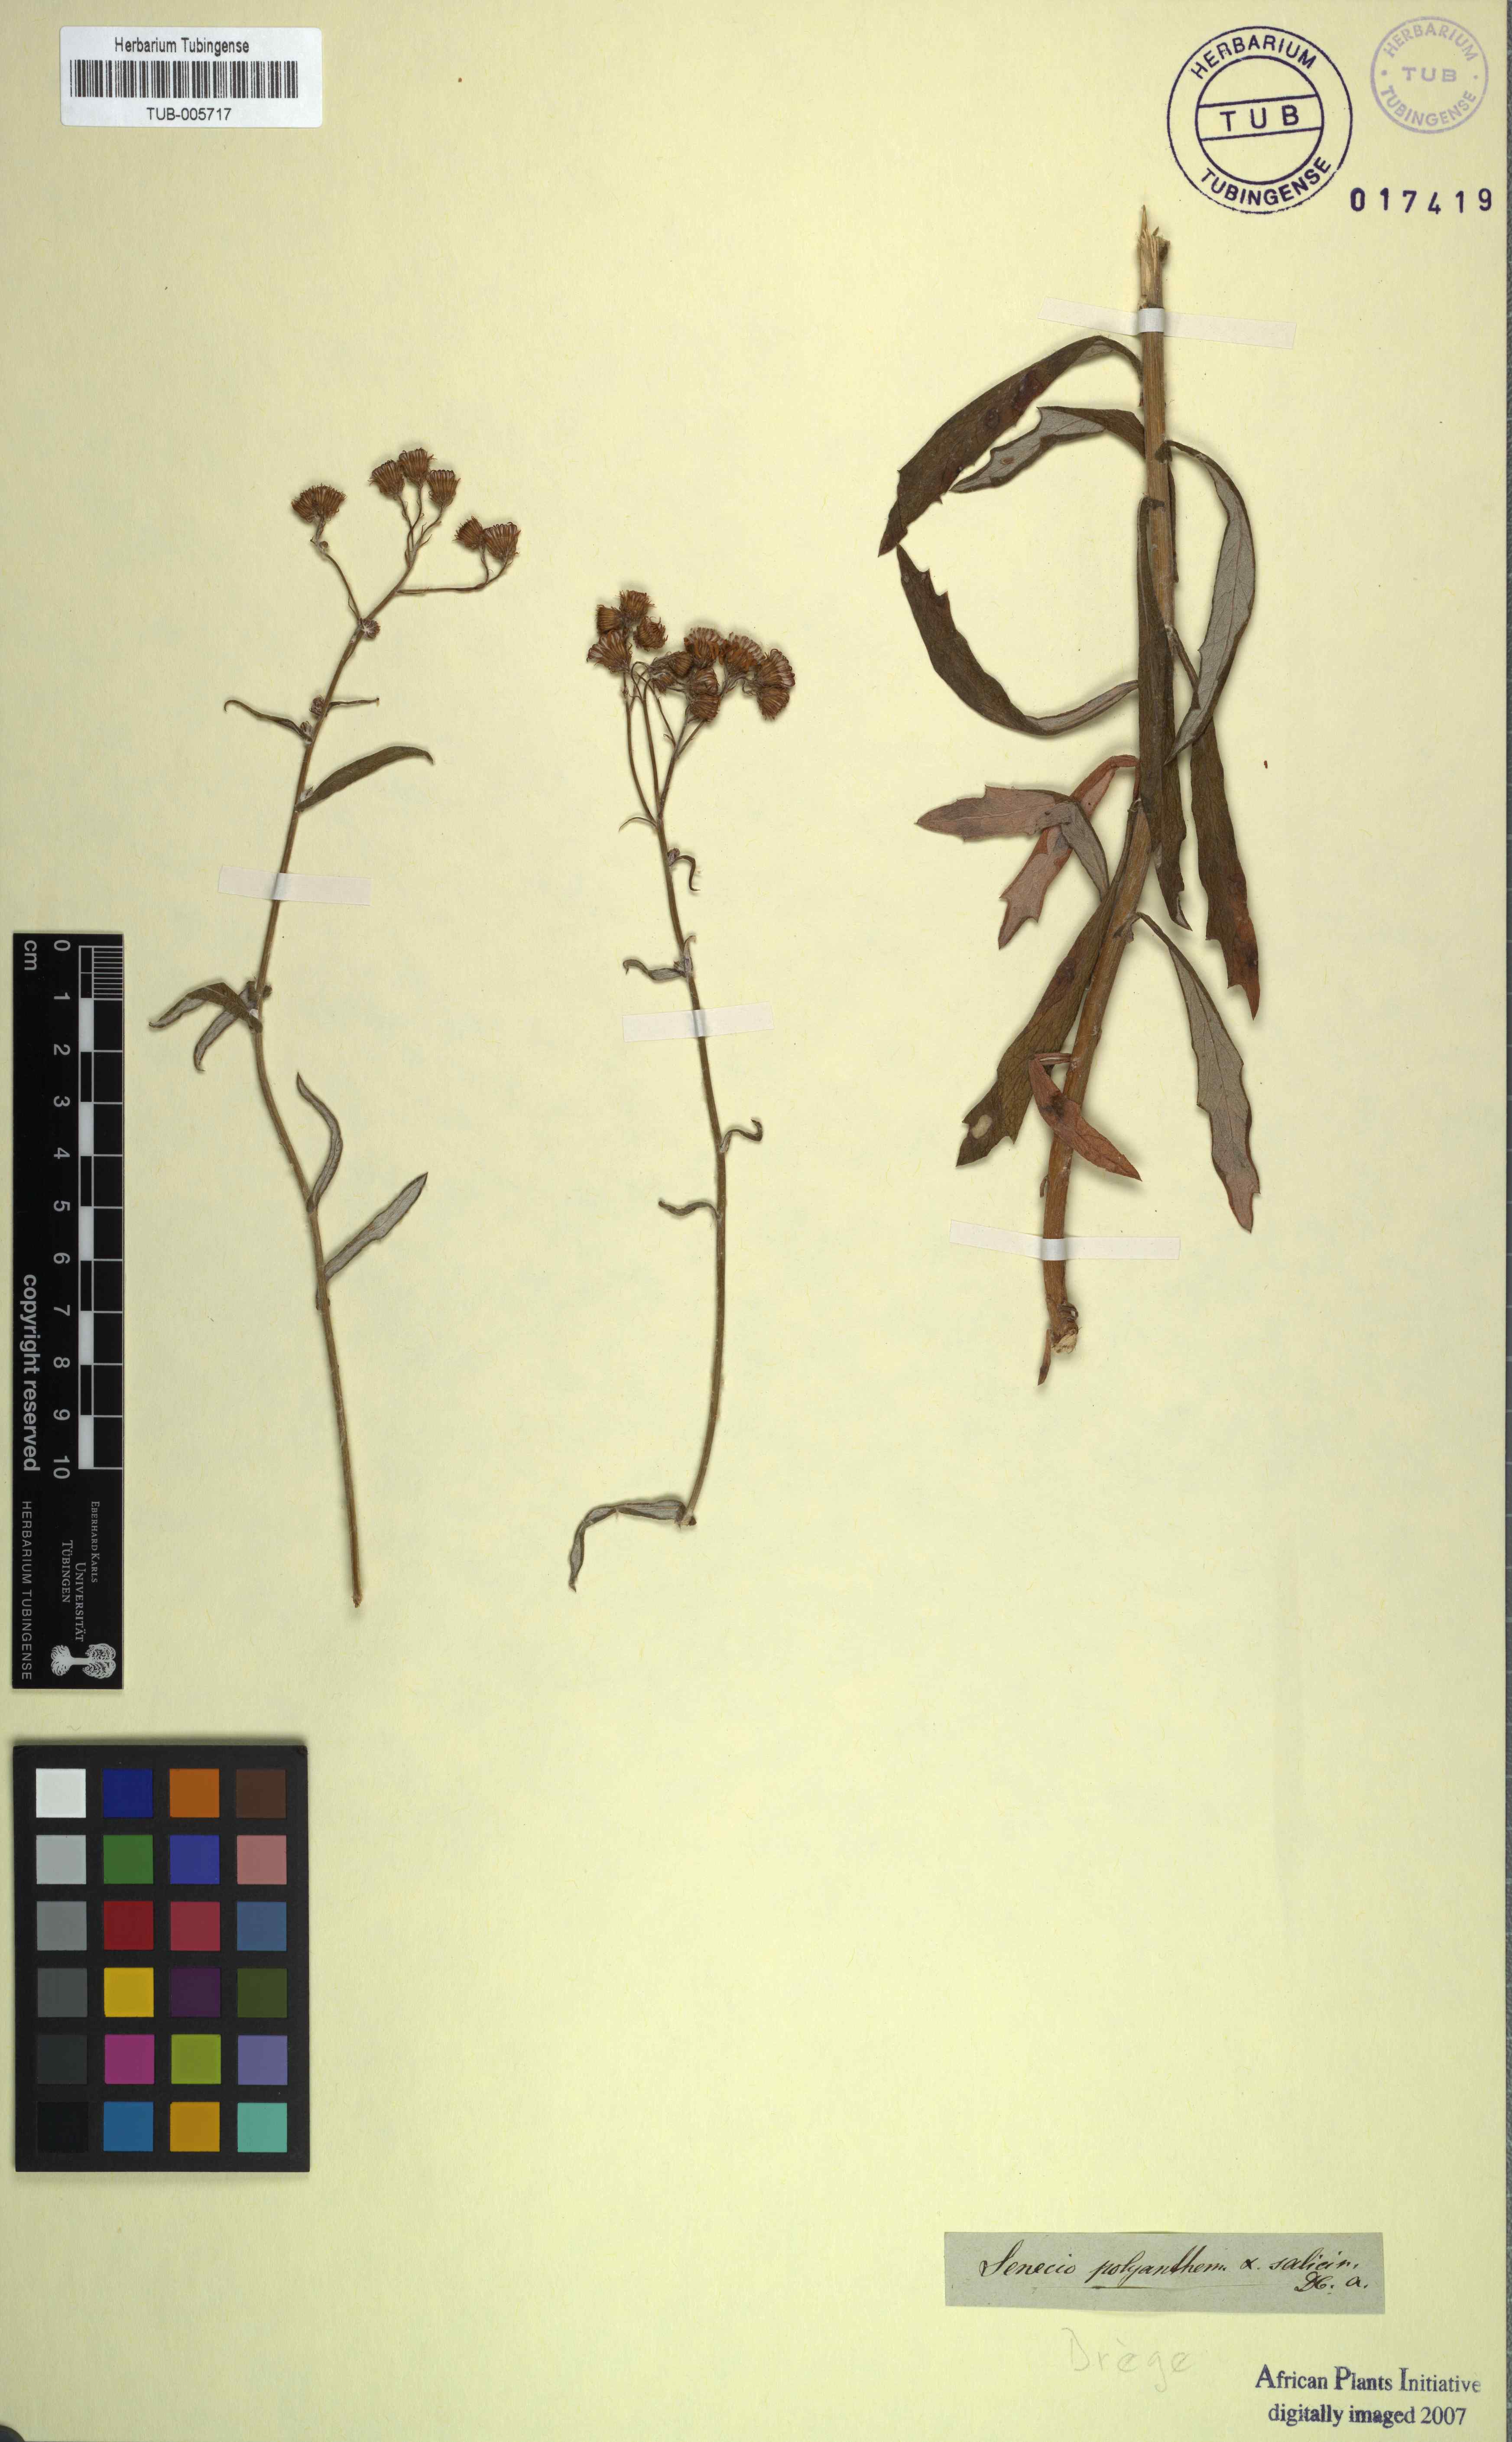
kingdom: Plantae
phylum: Tracheophyta
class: Magnoliopsida
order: Asterales
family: Asteraceae
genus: Senecio
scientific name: Senecio pterophorus
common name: Shoddy ragwort
